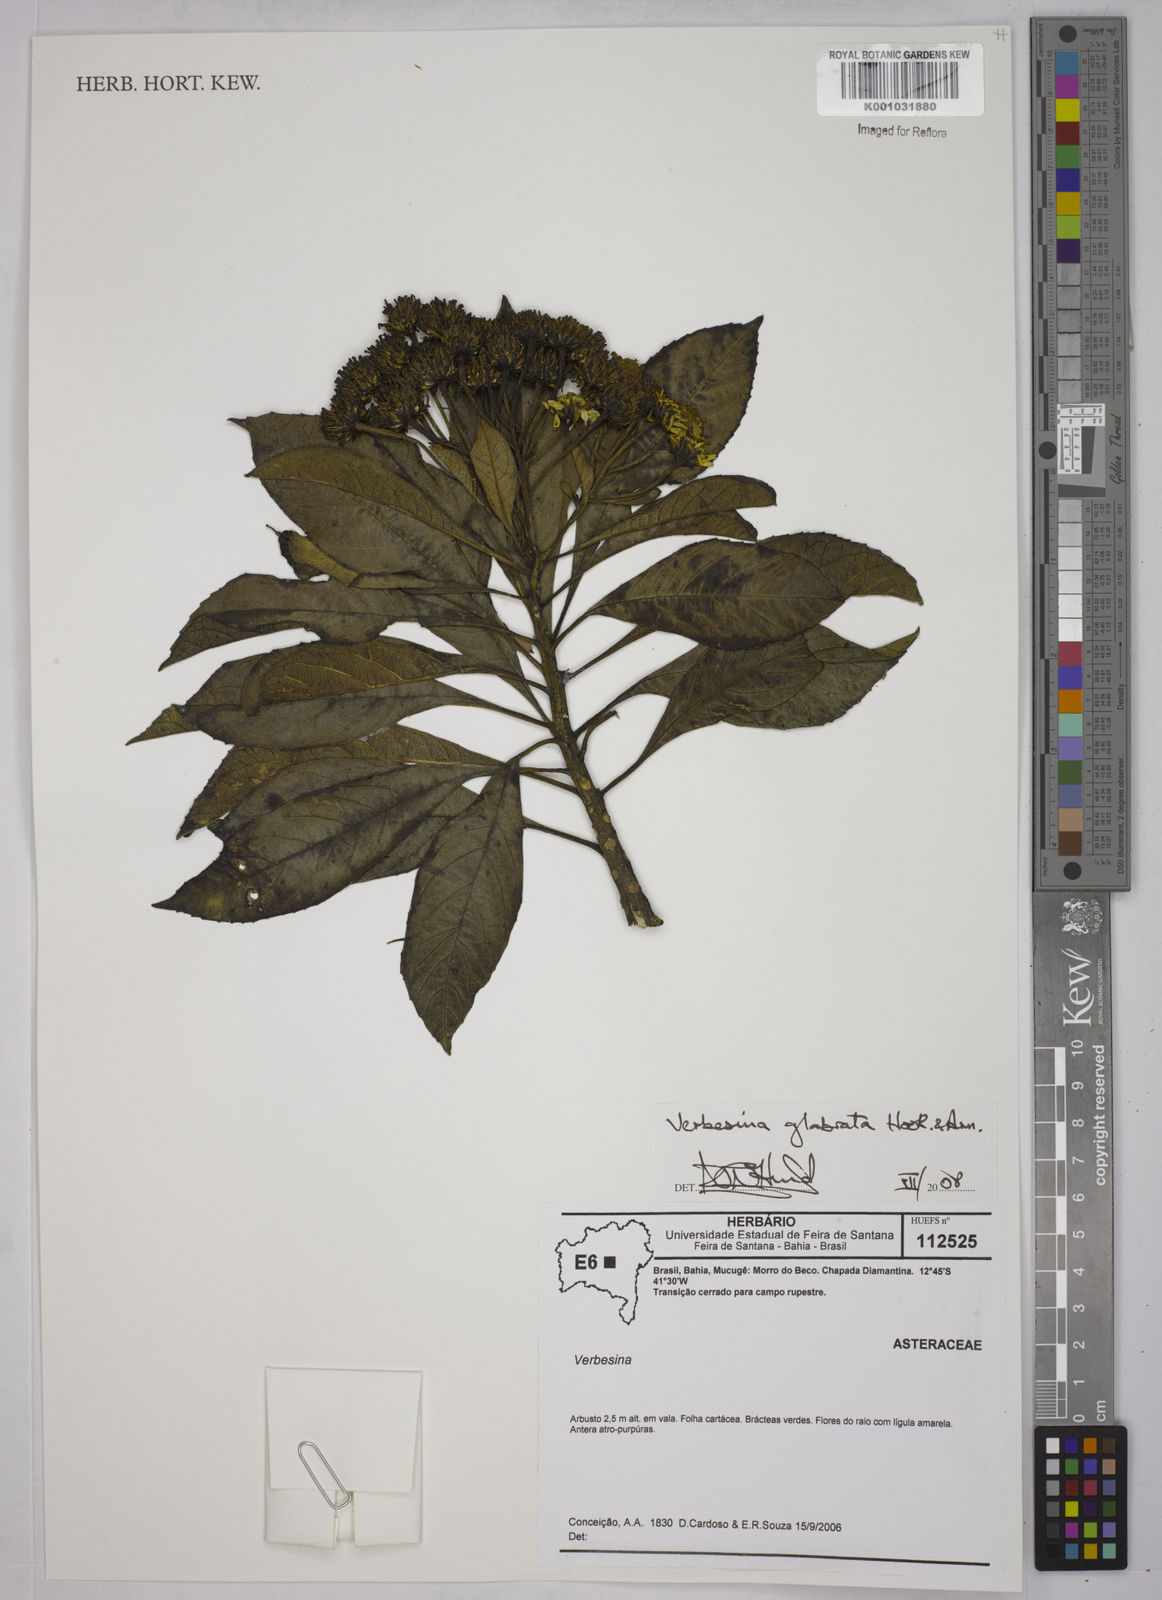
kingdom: Plantae
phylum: Tracheophyta
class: Magnoliopsida
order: Asterales
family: Asteraceae
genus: Verbesina
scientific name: Verbesina glabrata
